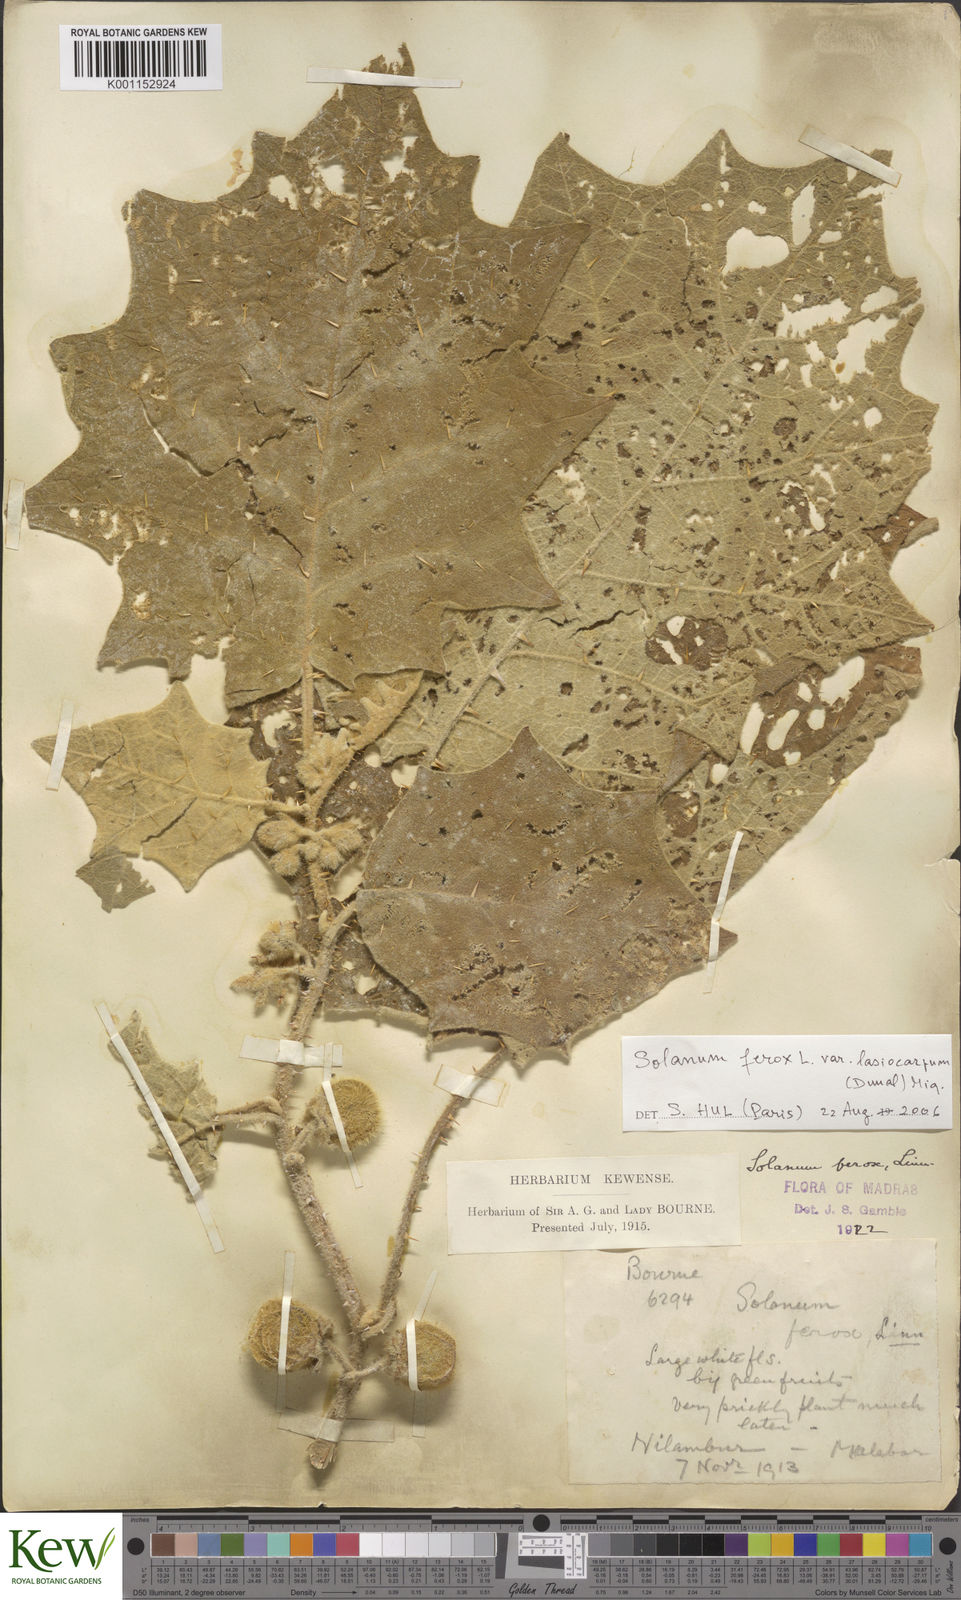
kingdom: Plantae
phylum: Tracheophyta
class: Magnoliopsida
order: Solanales
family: Solanaceae
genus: Solanum
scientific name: Solanum
